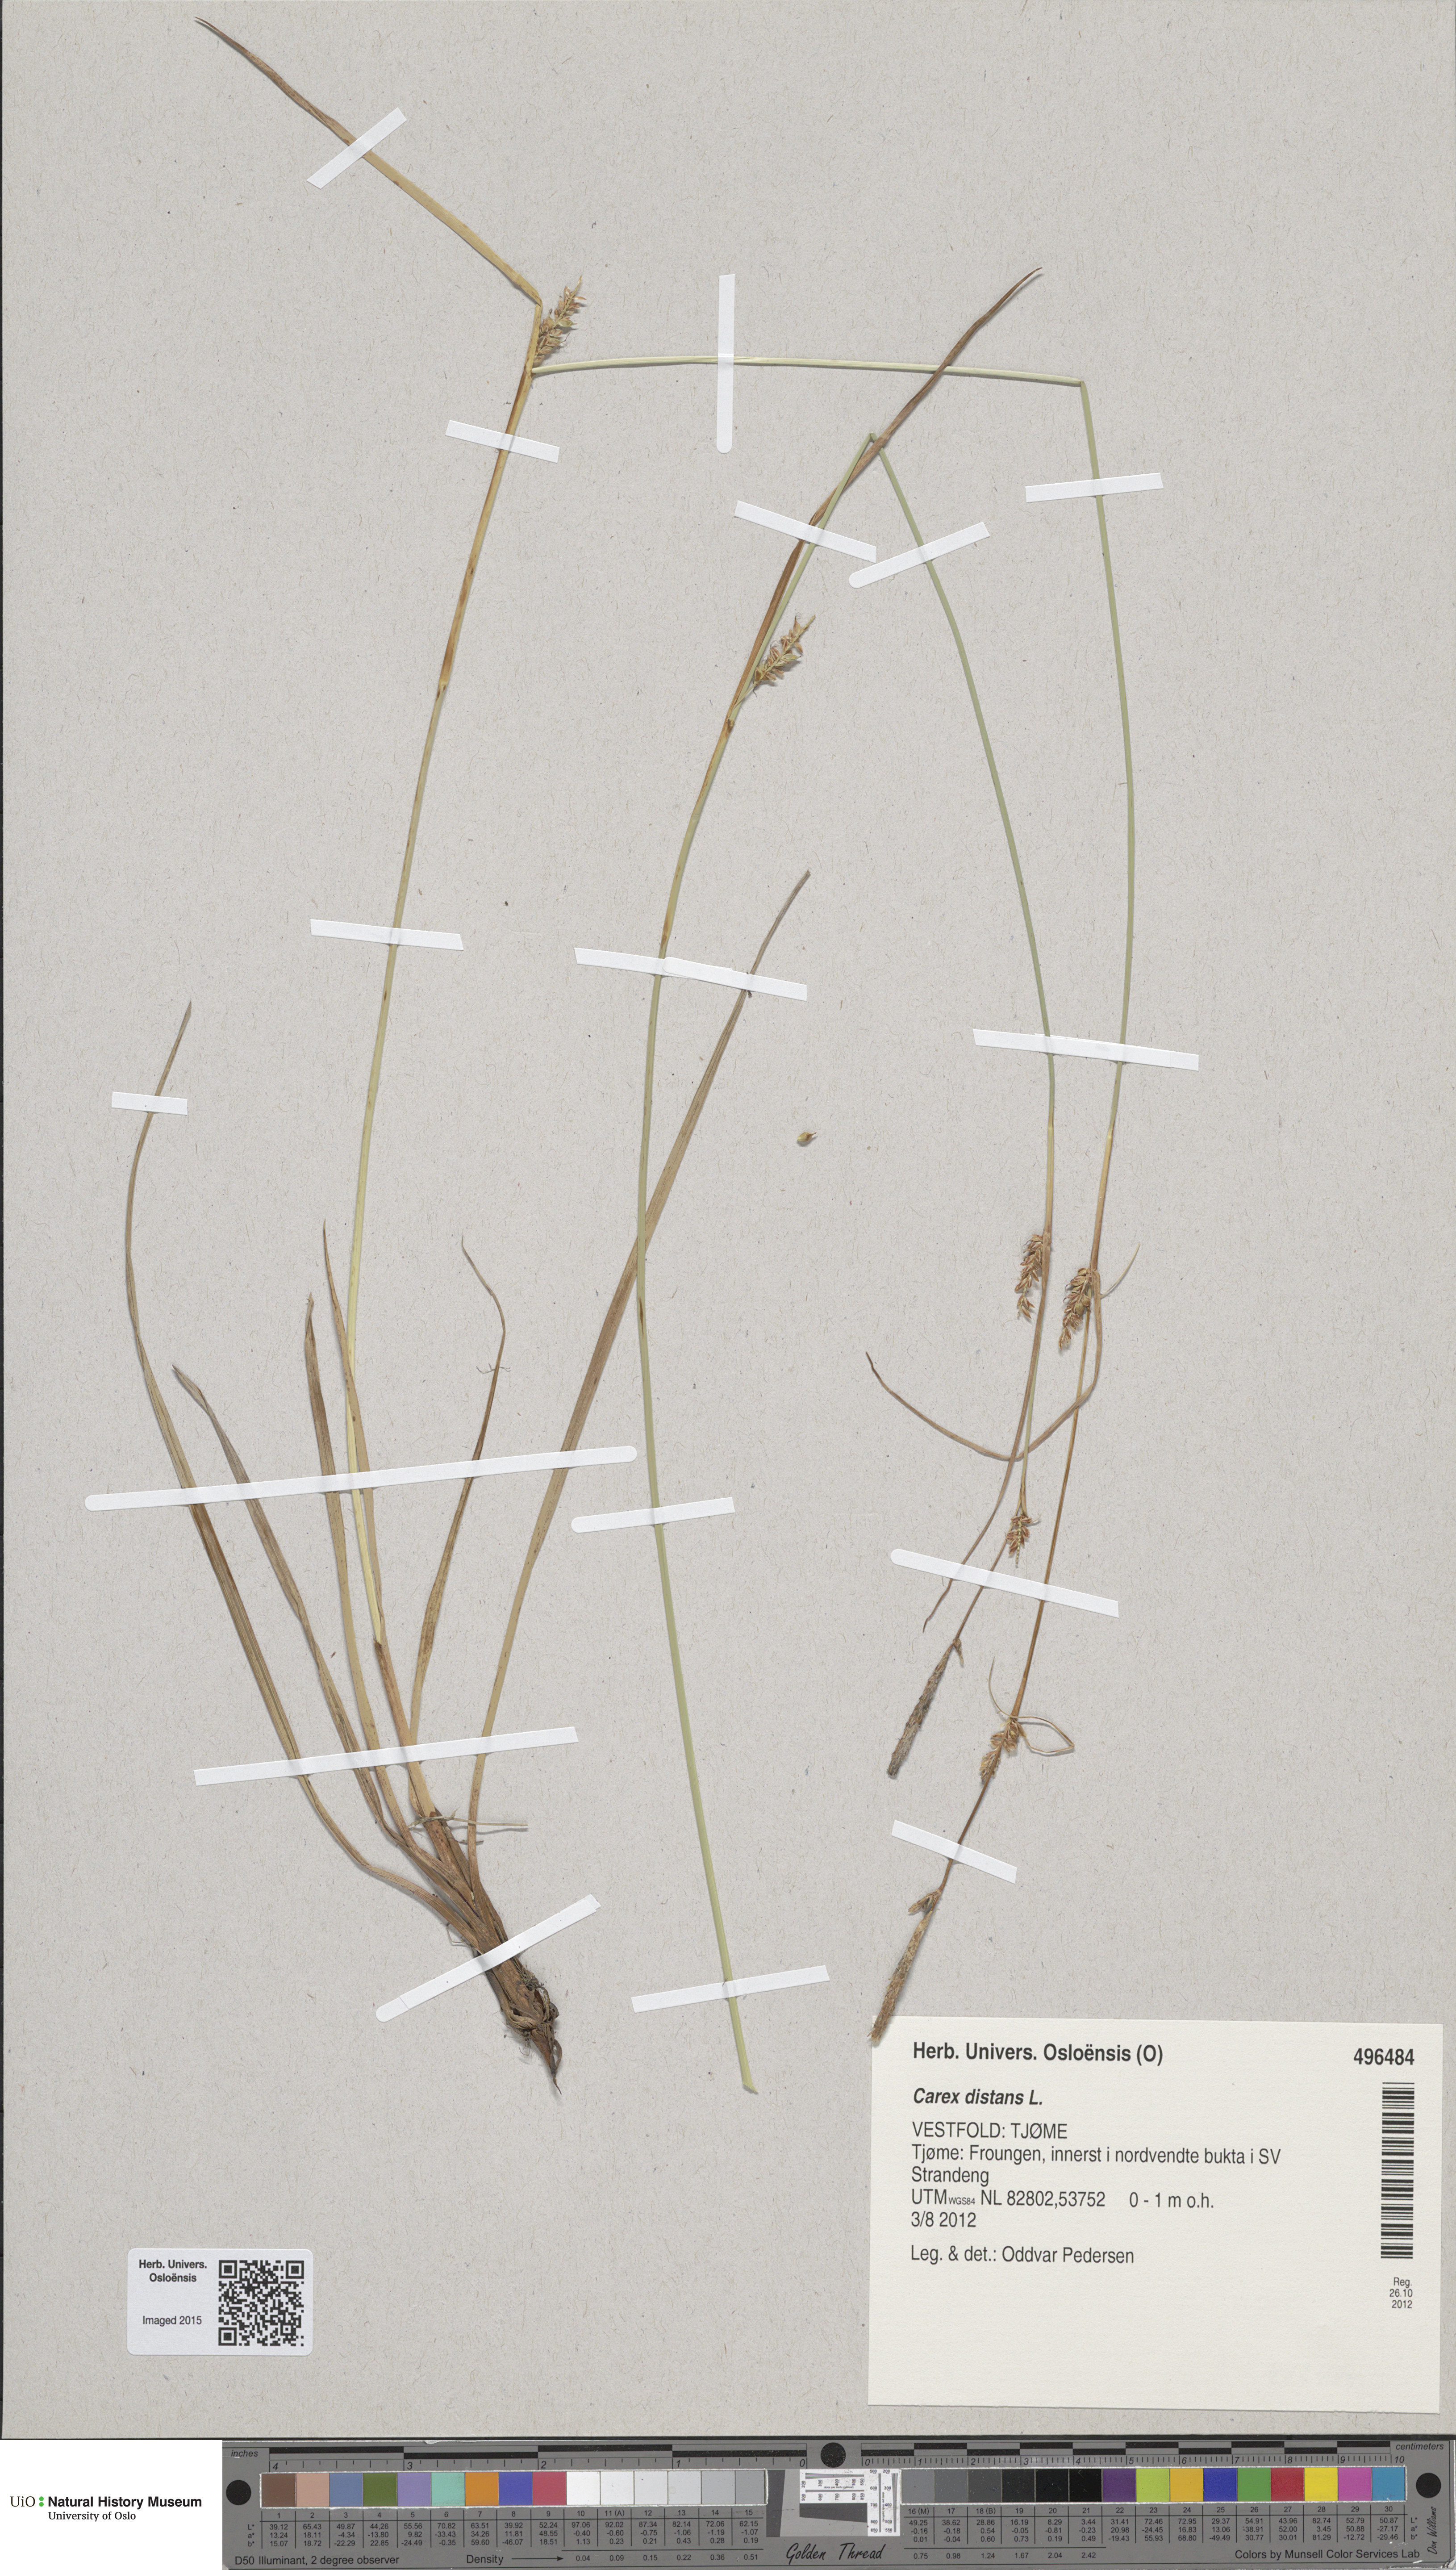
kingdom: Plantae
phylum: Tracheophyta
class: Liliopsida
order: Poales
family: Cyperaceae
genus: Carex
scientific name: Carex distans
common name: Distant sedge
